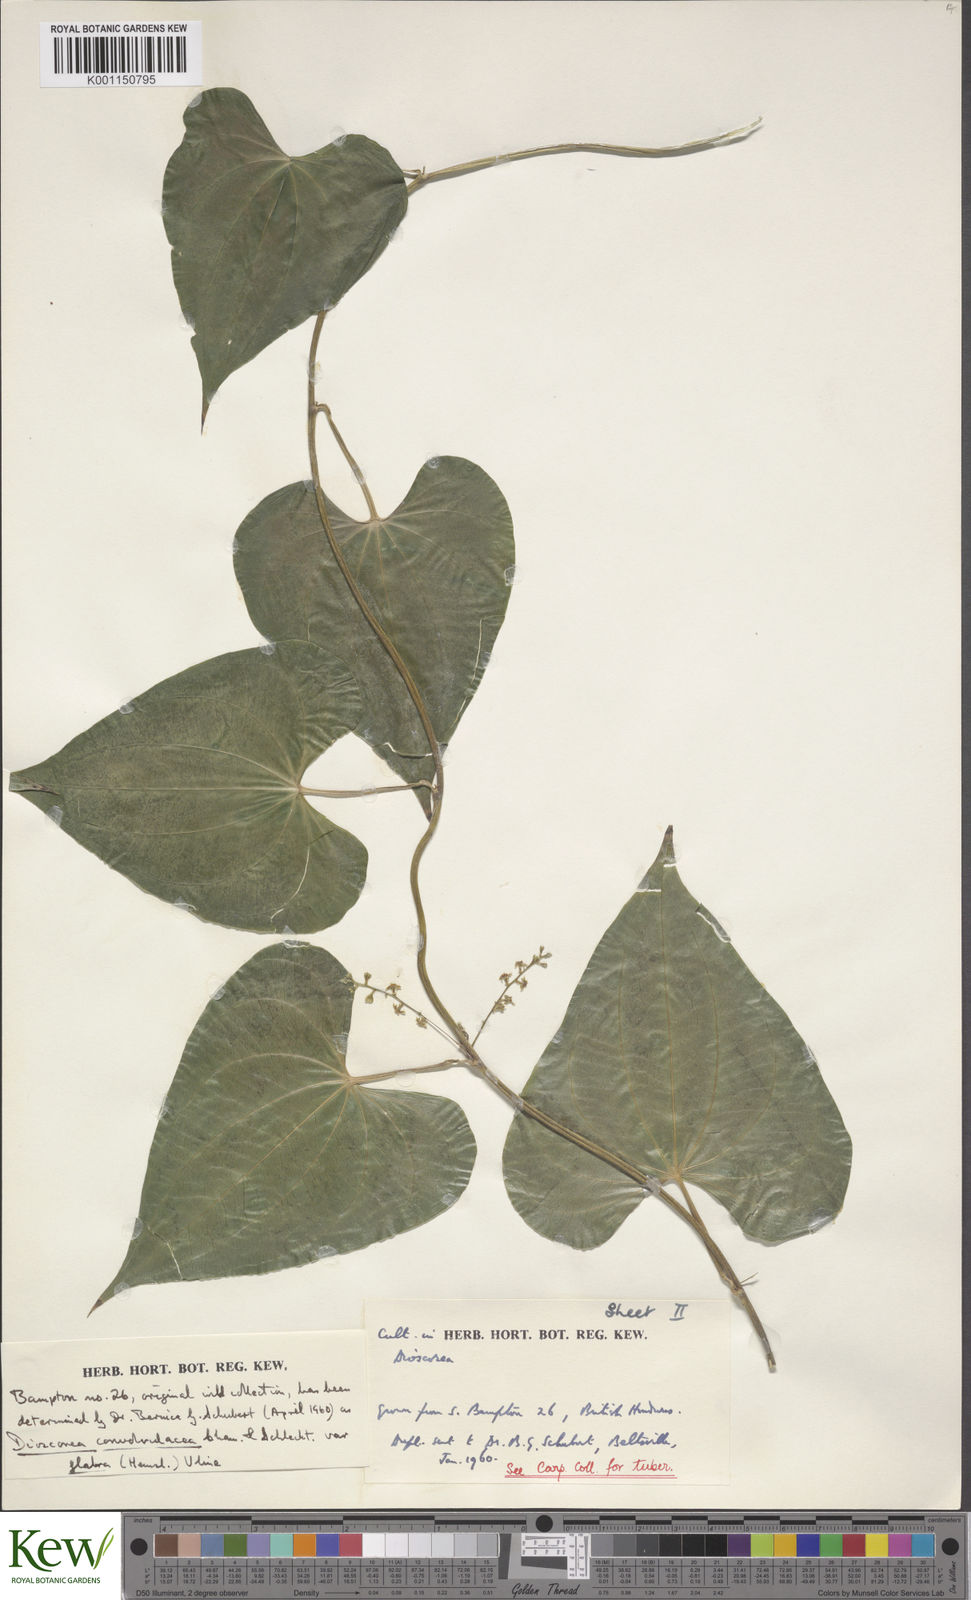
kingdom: Plantae
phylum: Tracheophyta
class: Liliopsida
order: Dioscoreales
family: Dioscoreaceae
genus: Dioscorea
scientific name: Dioscorea
